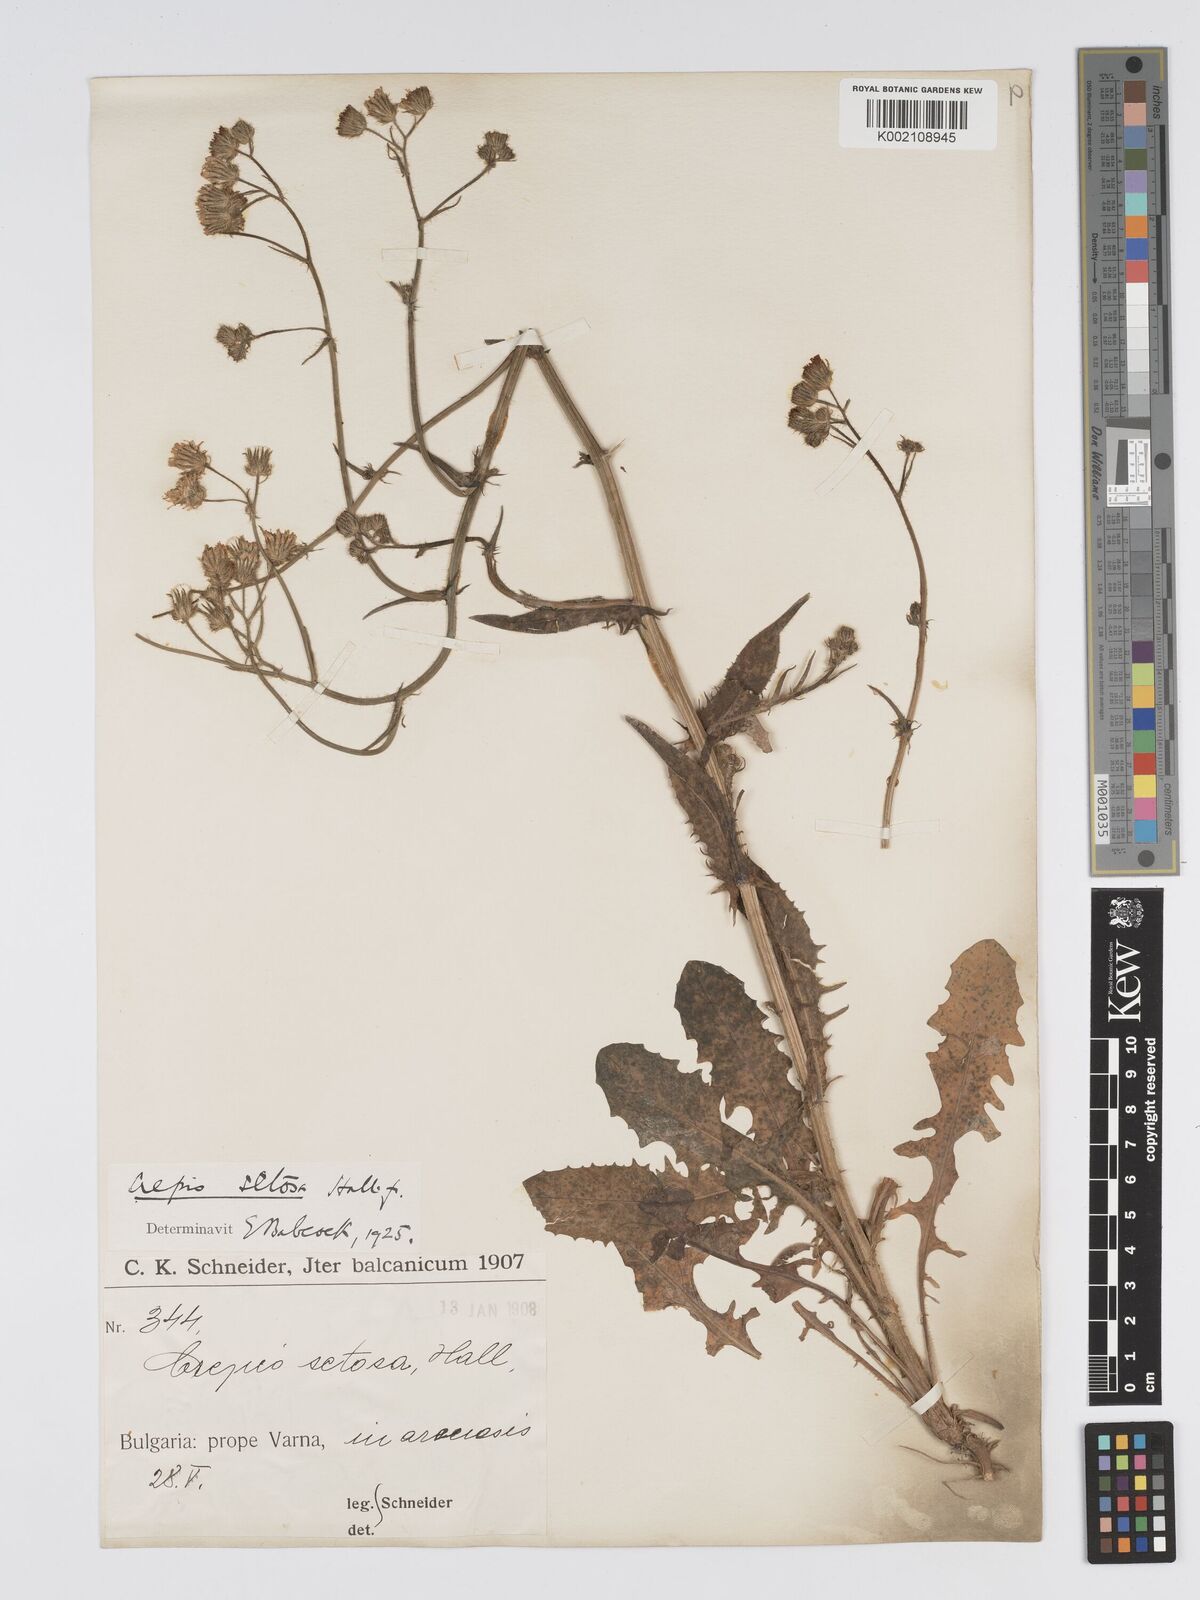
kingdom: Plantae
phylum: Tracheophyta
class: Magnoliopsida
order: Asterales
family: Asteraceae
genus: Crepis
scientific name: Crepis setosa
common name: Bristly hawk's-beard
